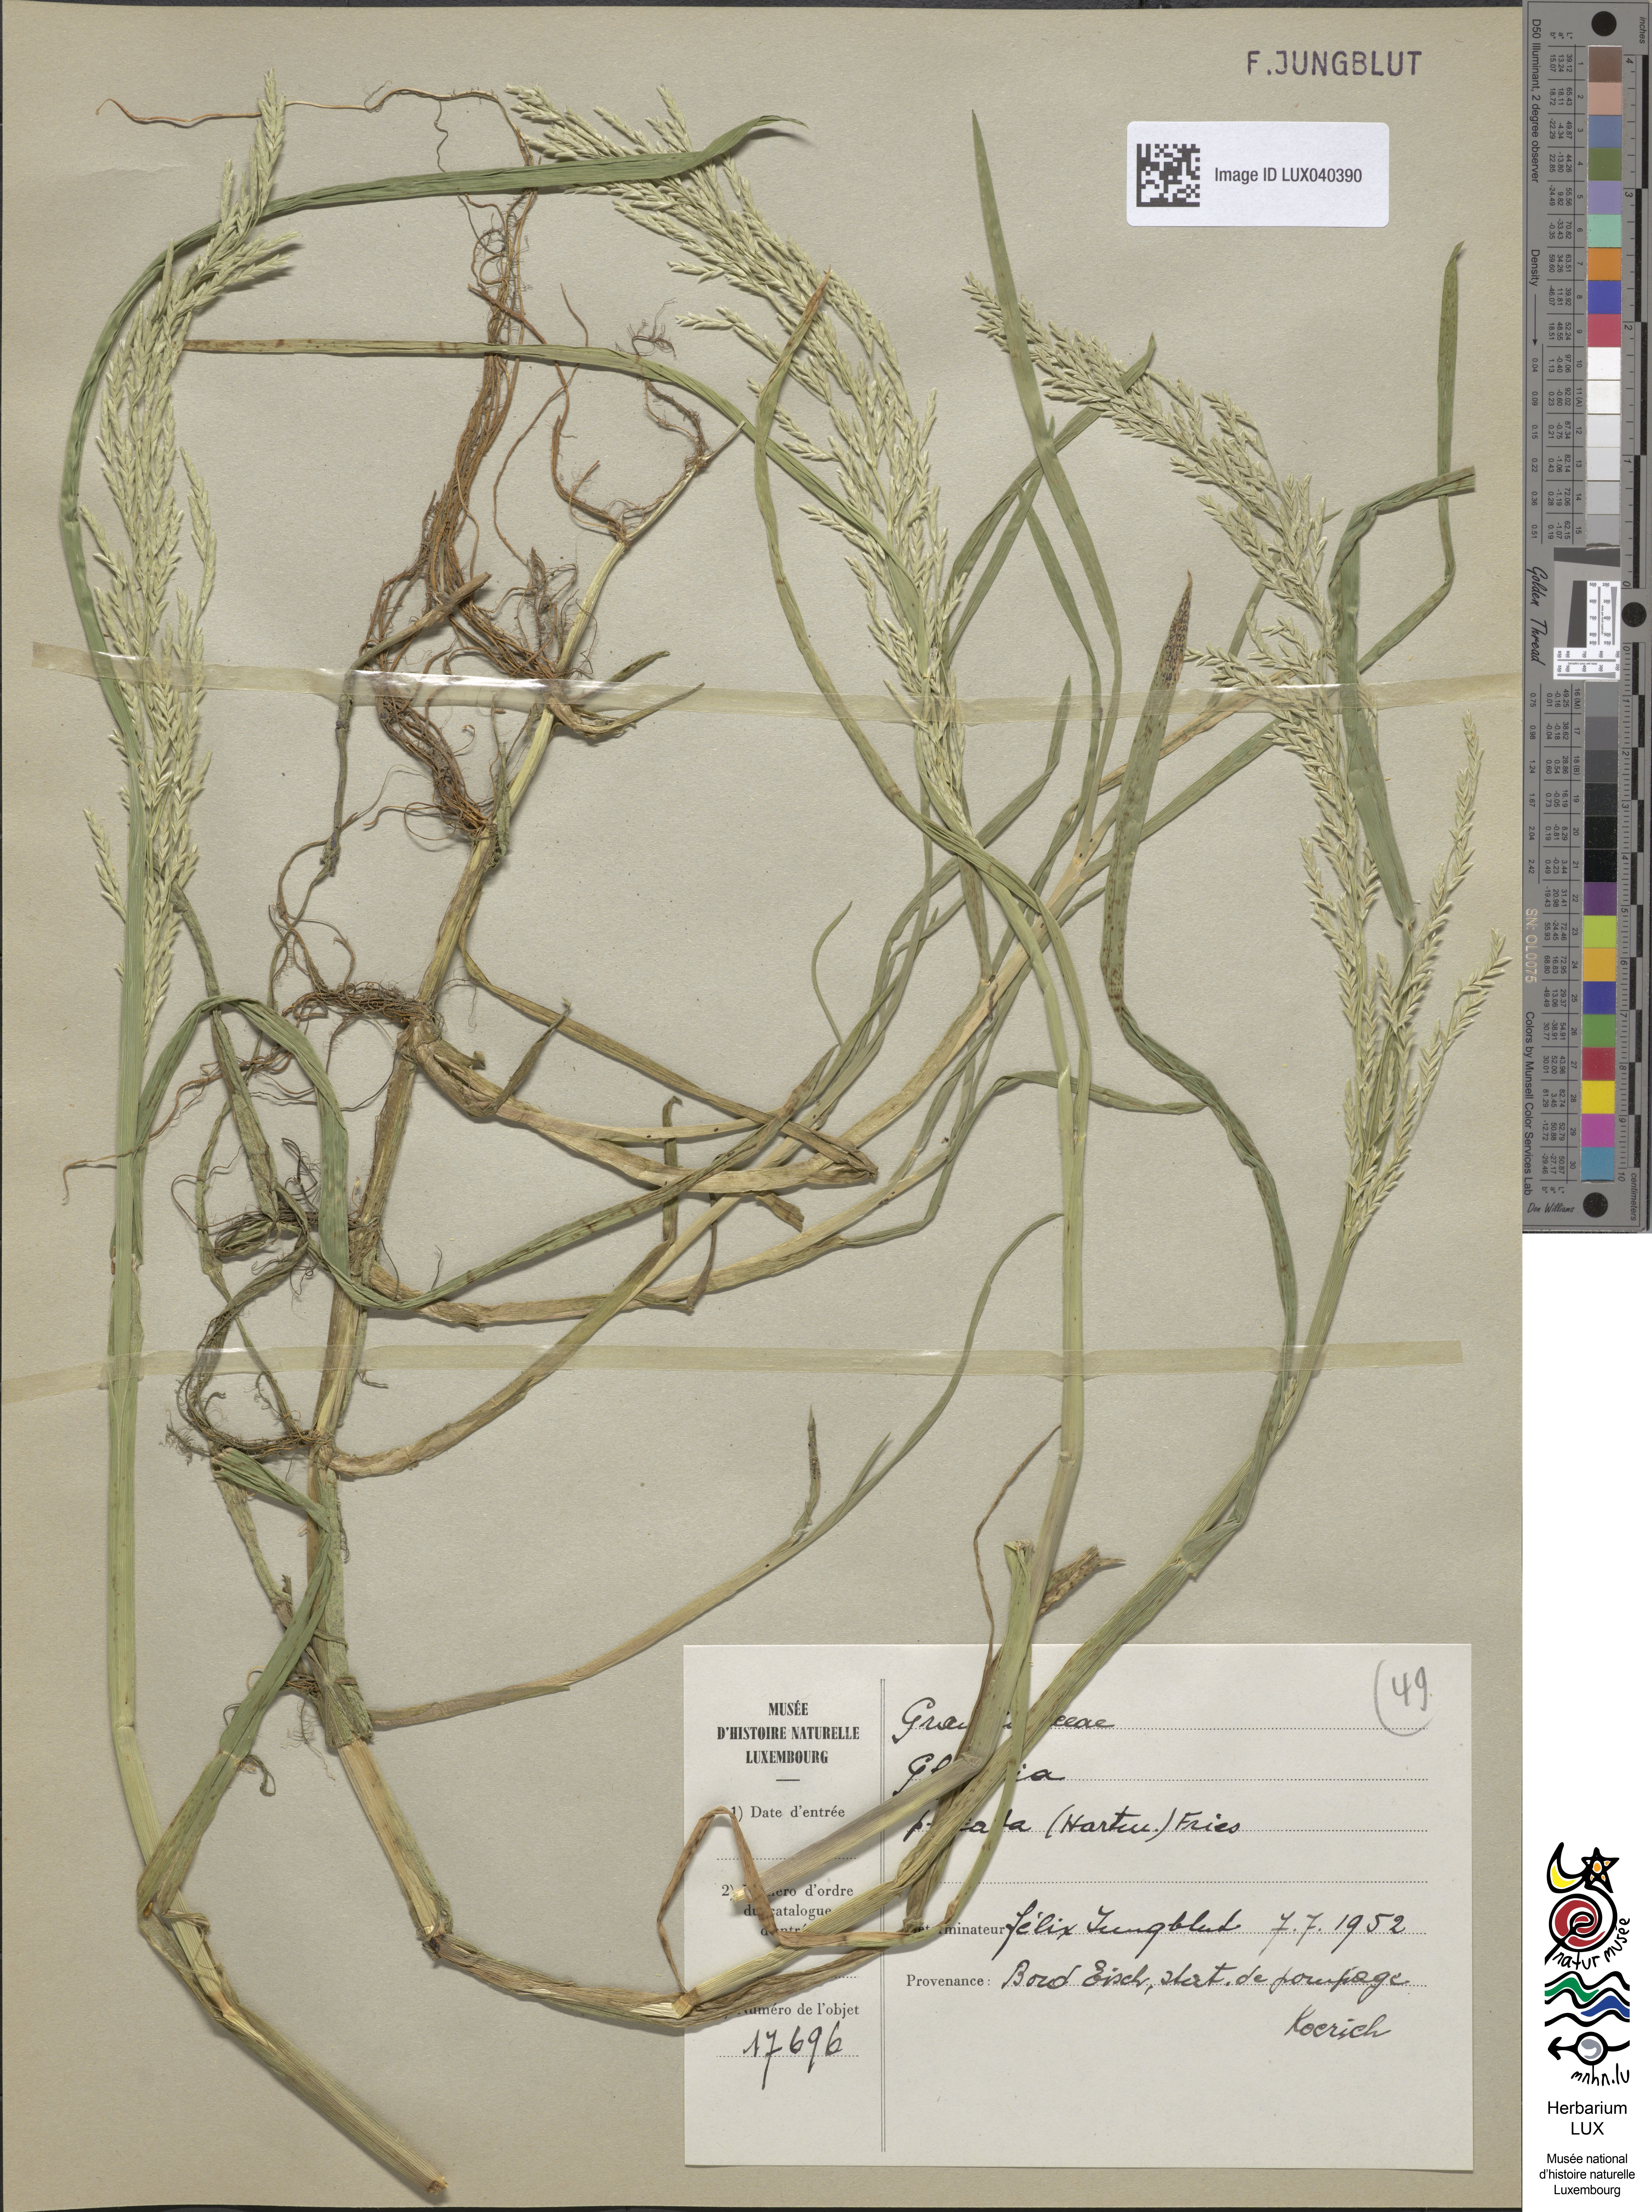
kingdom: Plantae
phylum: Tracheophyta
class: Liliopsida
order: Poales
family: Poaceae
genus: Glyceria
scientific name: Glyceria notata
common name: Plicate sweet-grass
